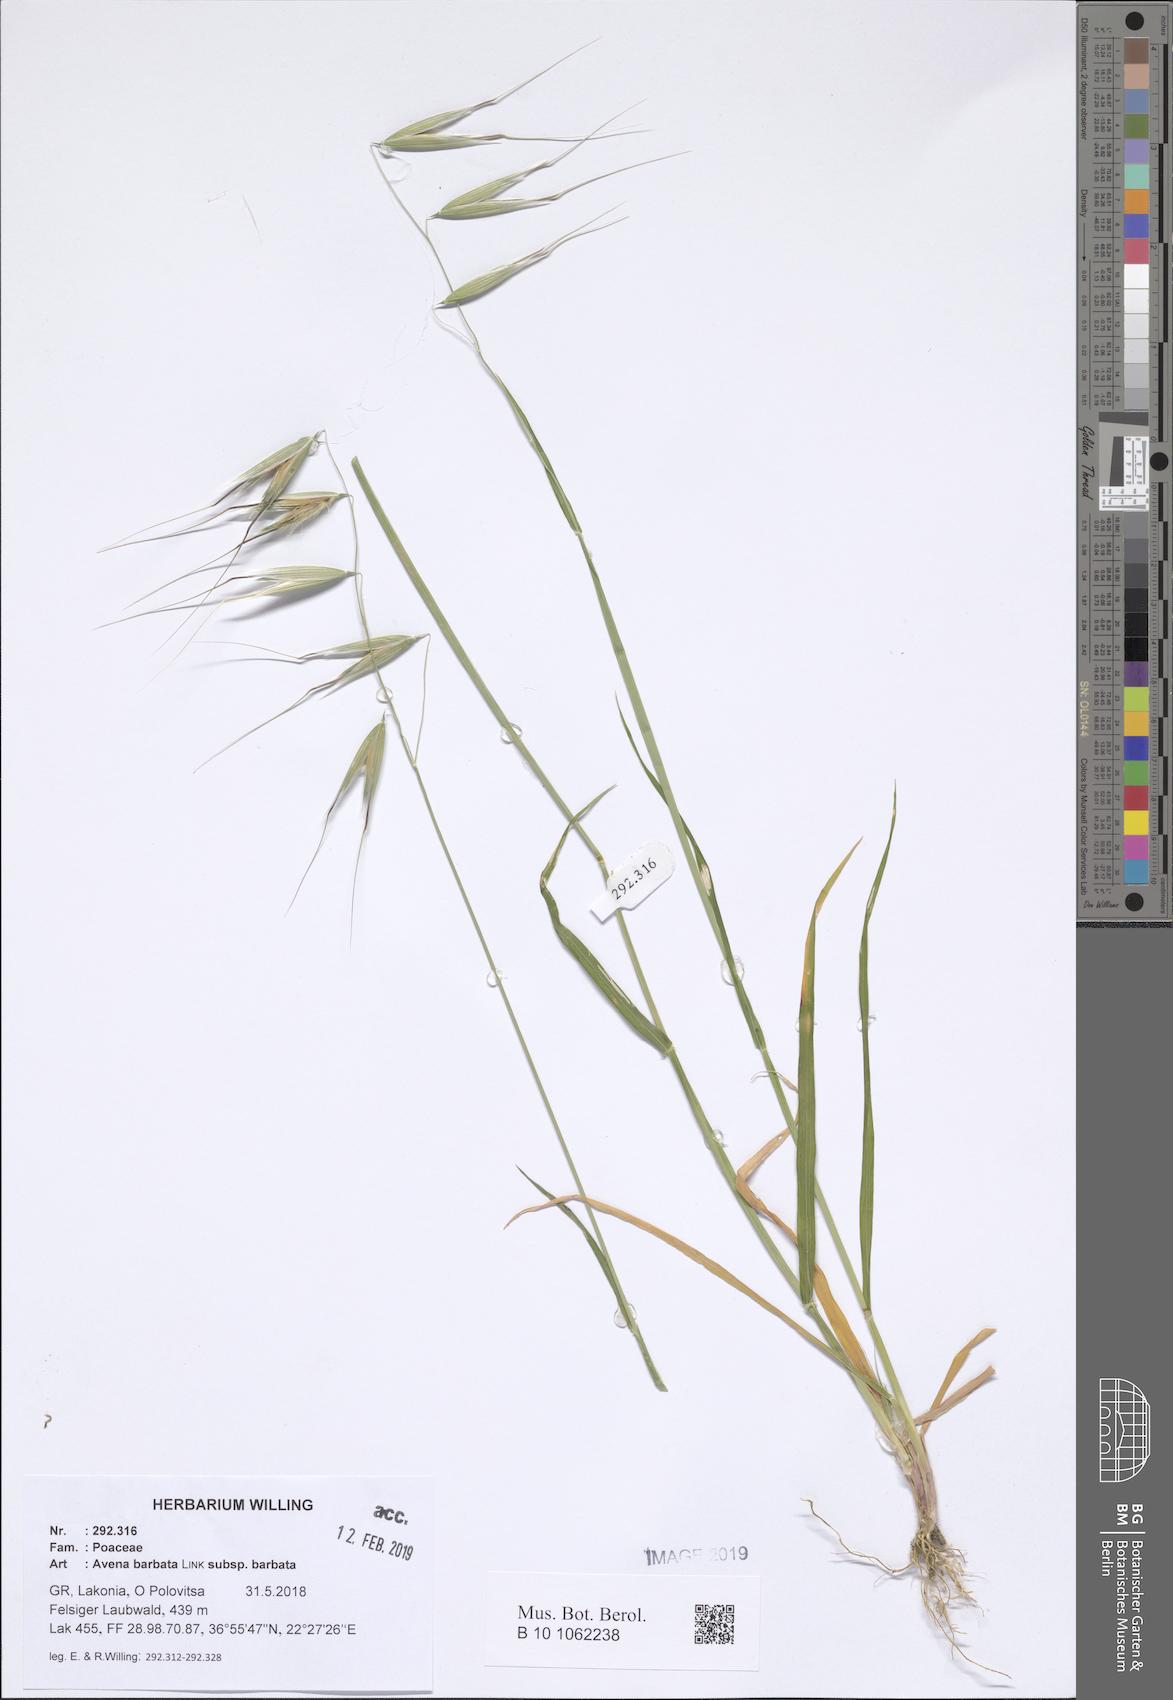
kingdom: Plantae
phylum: Tracheophyta
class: Liliopsida
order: Poales
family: Poaceae
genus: Avena
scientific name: Avena barbata
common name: Slender oat
